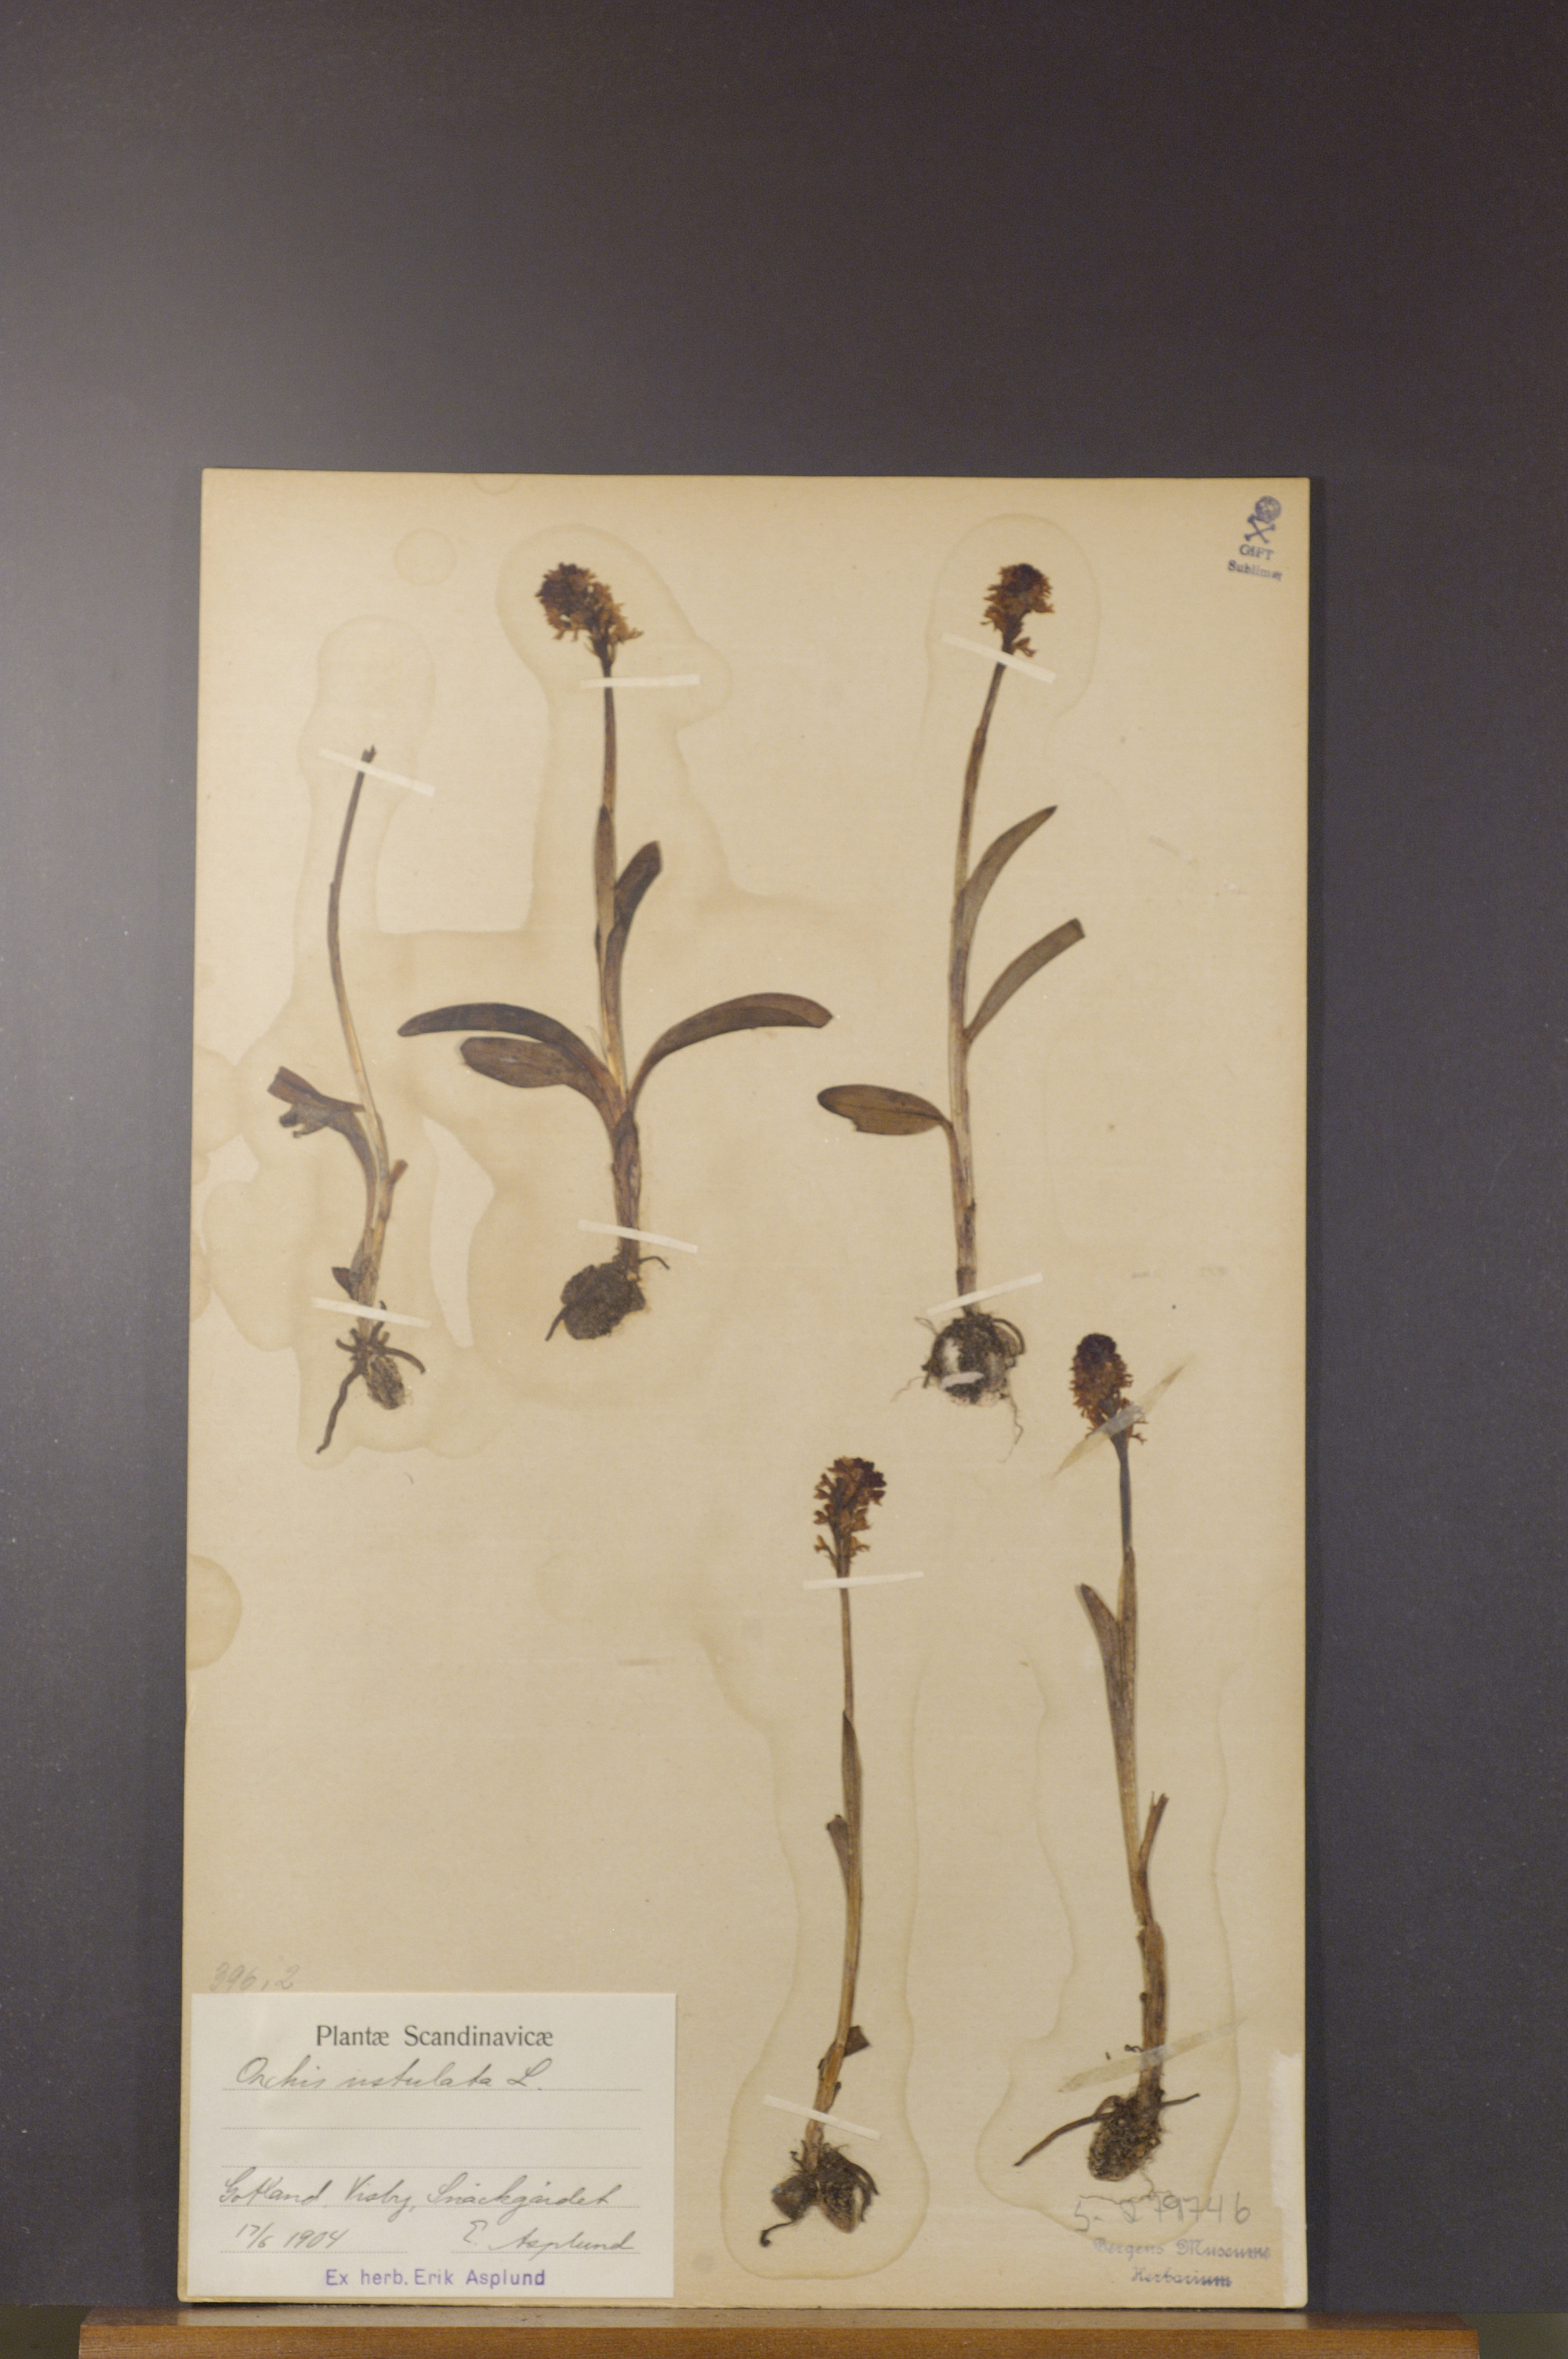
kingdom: Plantae
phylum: Tracheophyta
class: Liliopsida
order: Asparagales
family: Orchidaceae
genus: Neotinea
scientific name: Neotinea ustulata
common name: Burnt orchid
